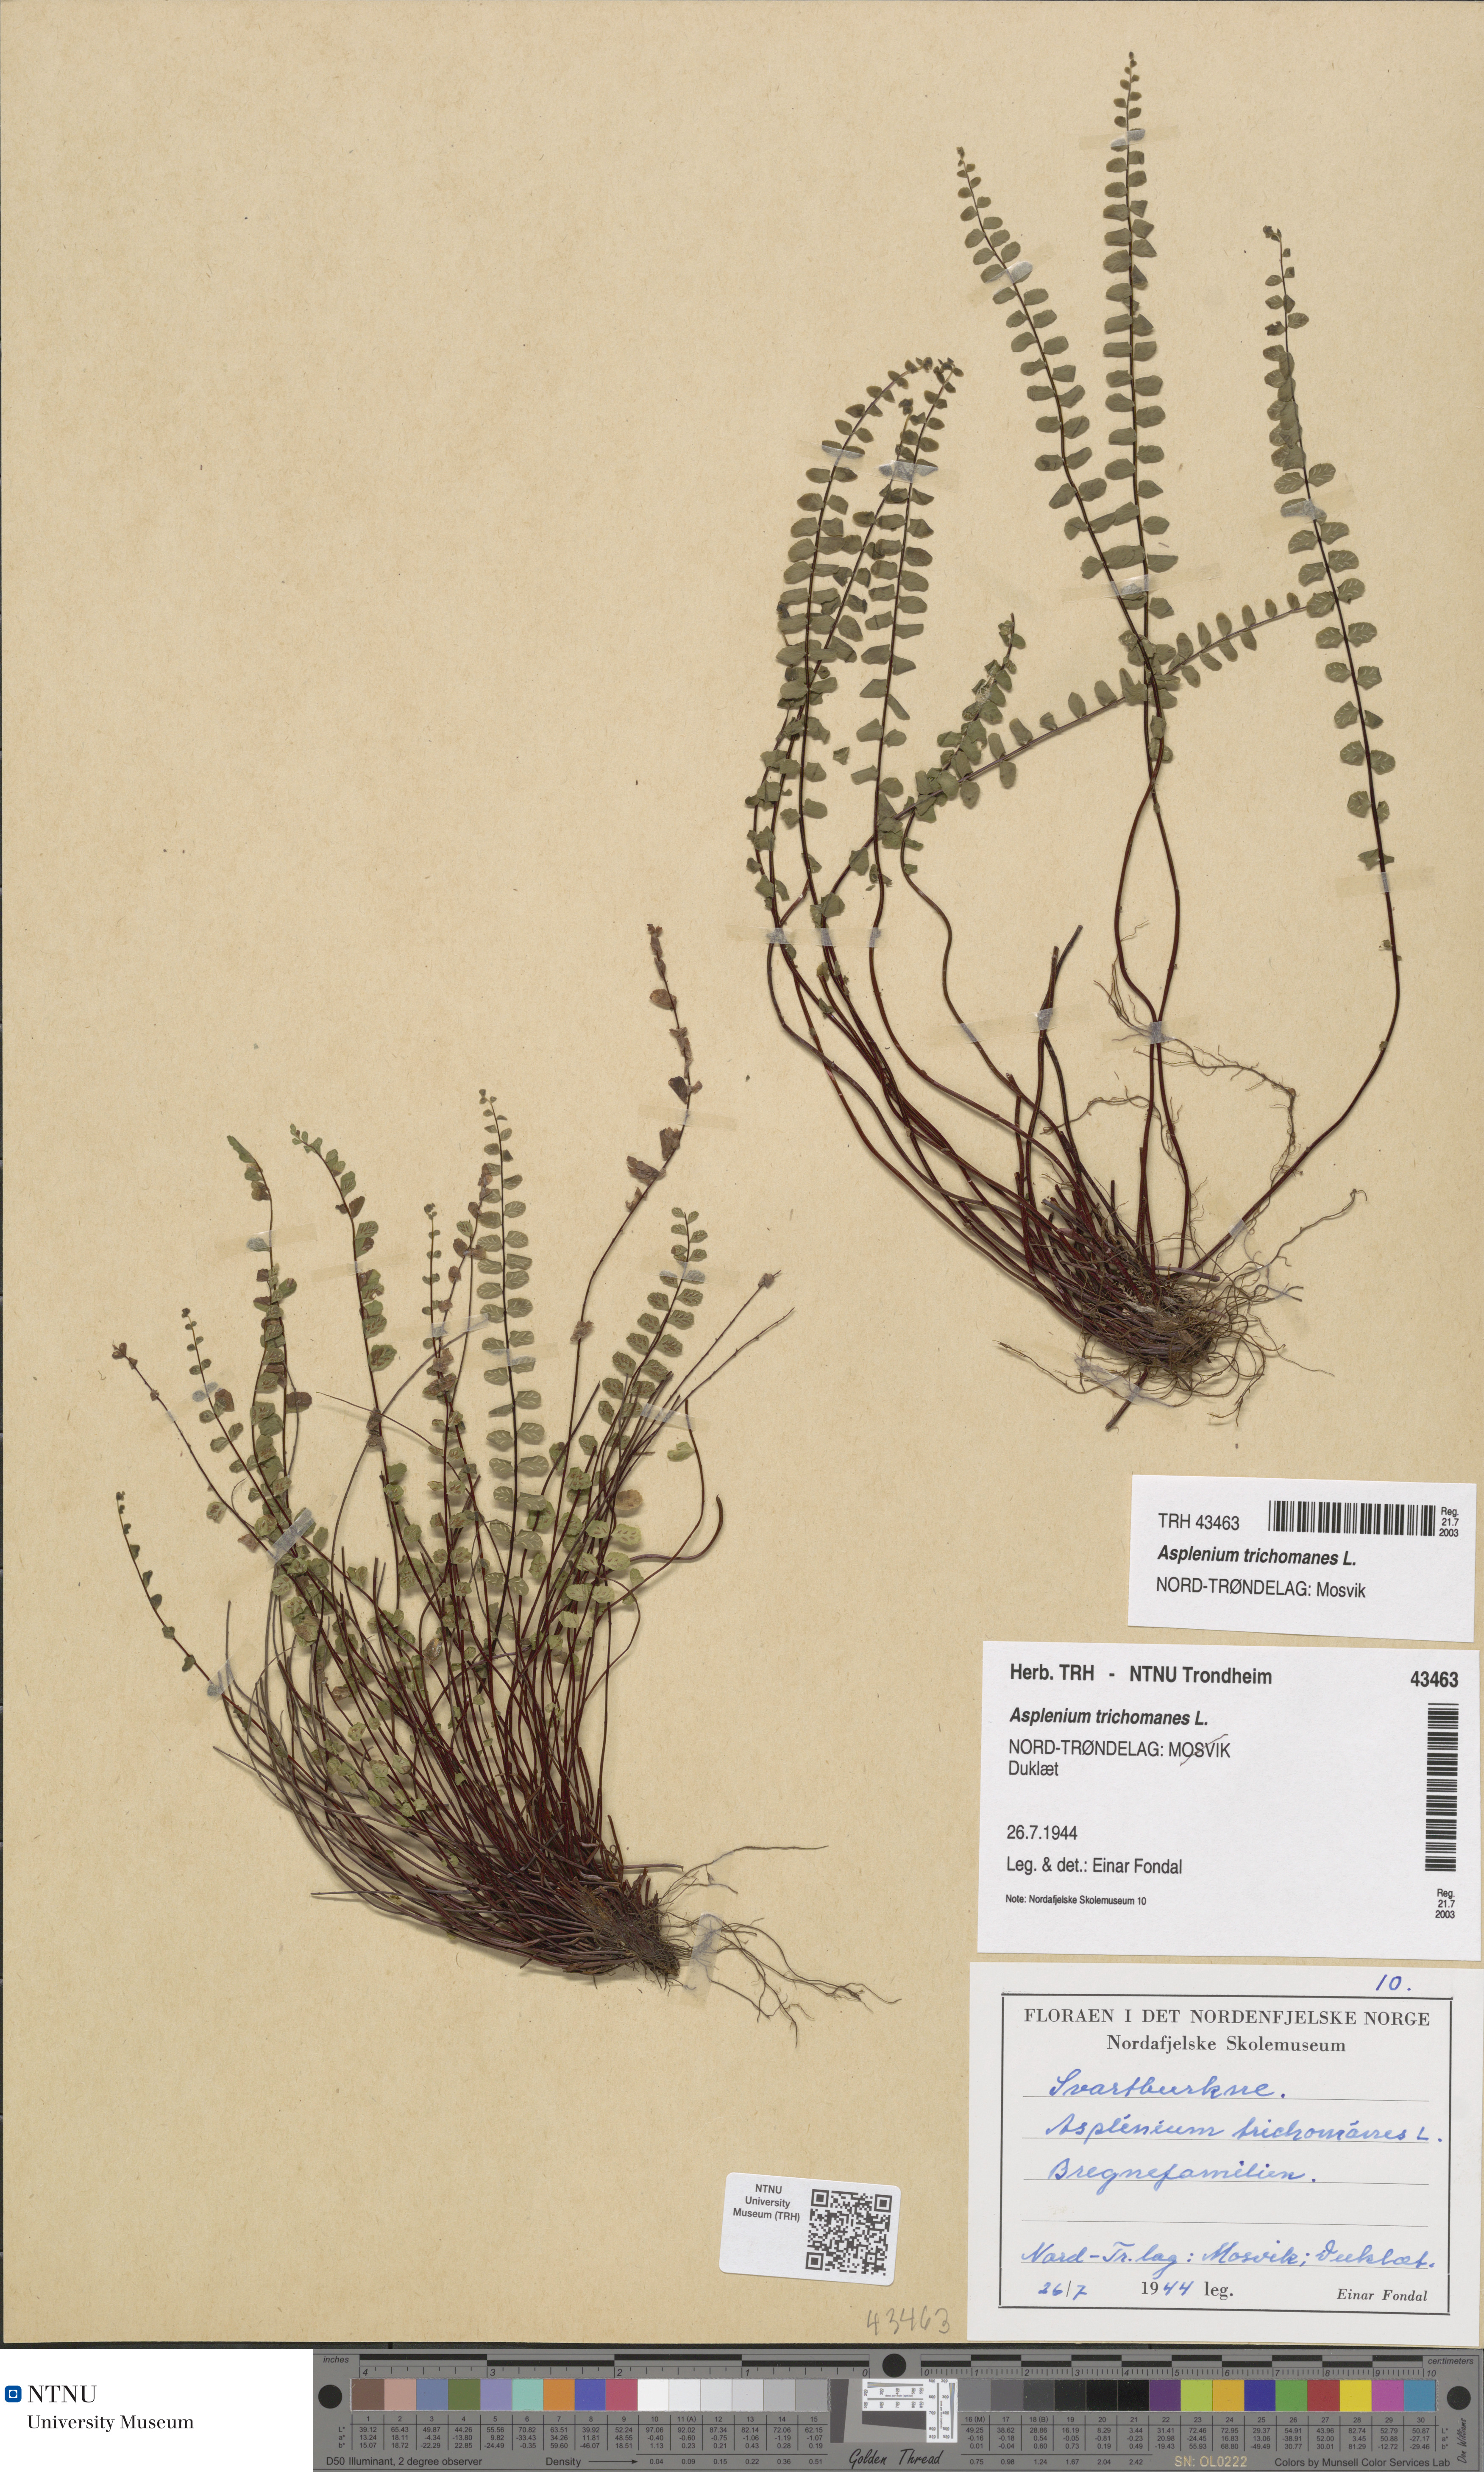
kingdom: Plantae
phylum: Tracheophyta
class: Polypodiopsida
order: Polypodiales
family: Aspleniaceae
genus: Asplenium
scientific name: Asplenium trichomanes
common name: Maidenhair spleenwort
